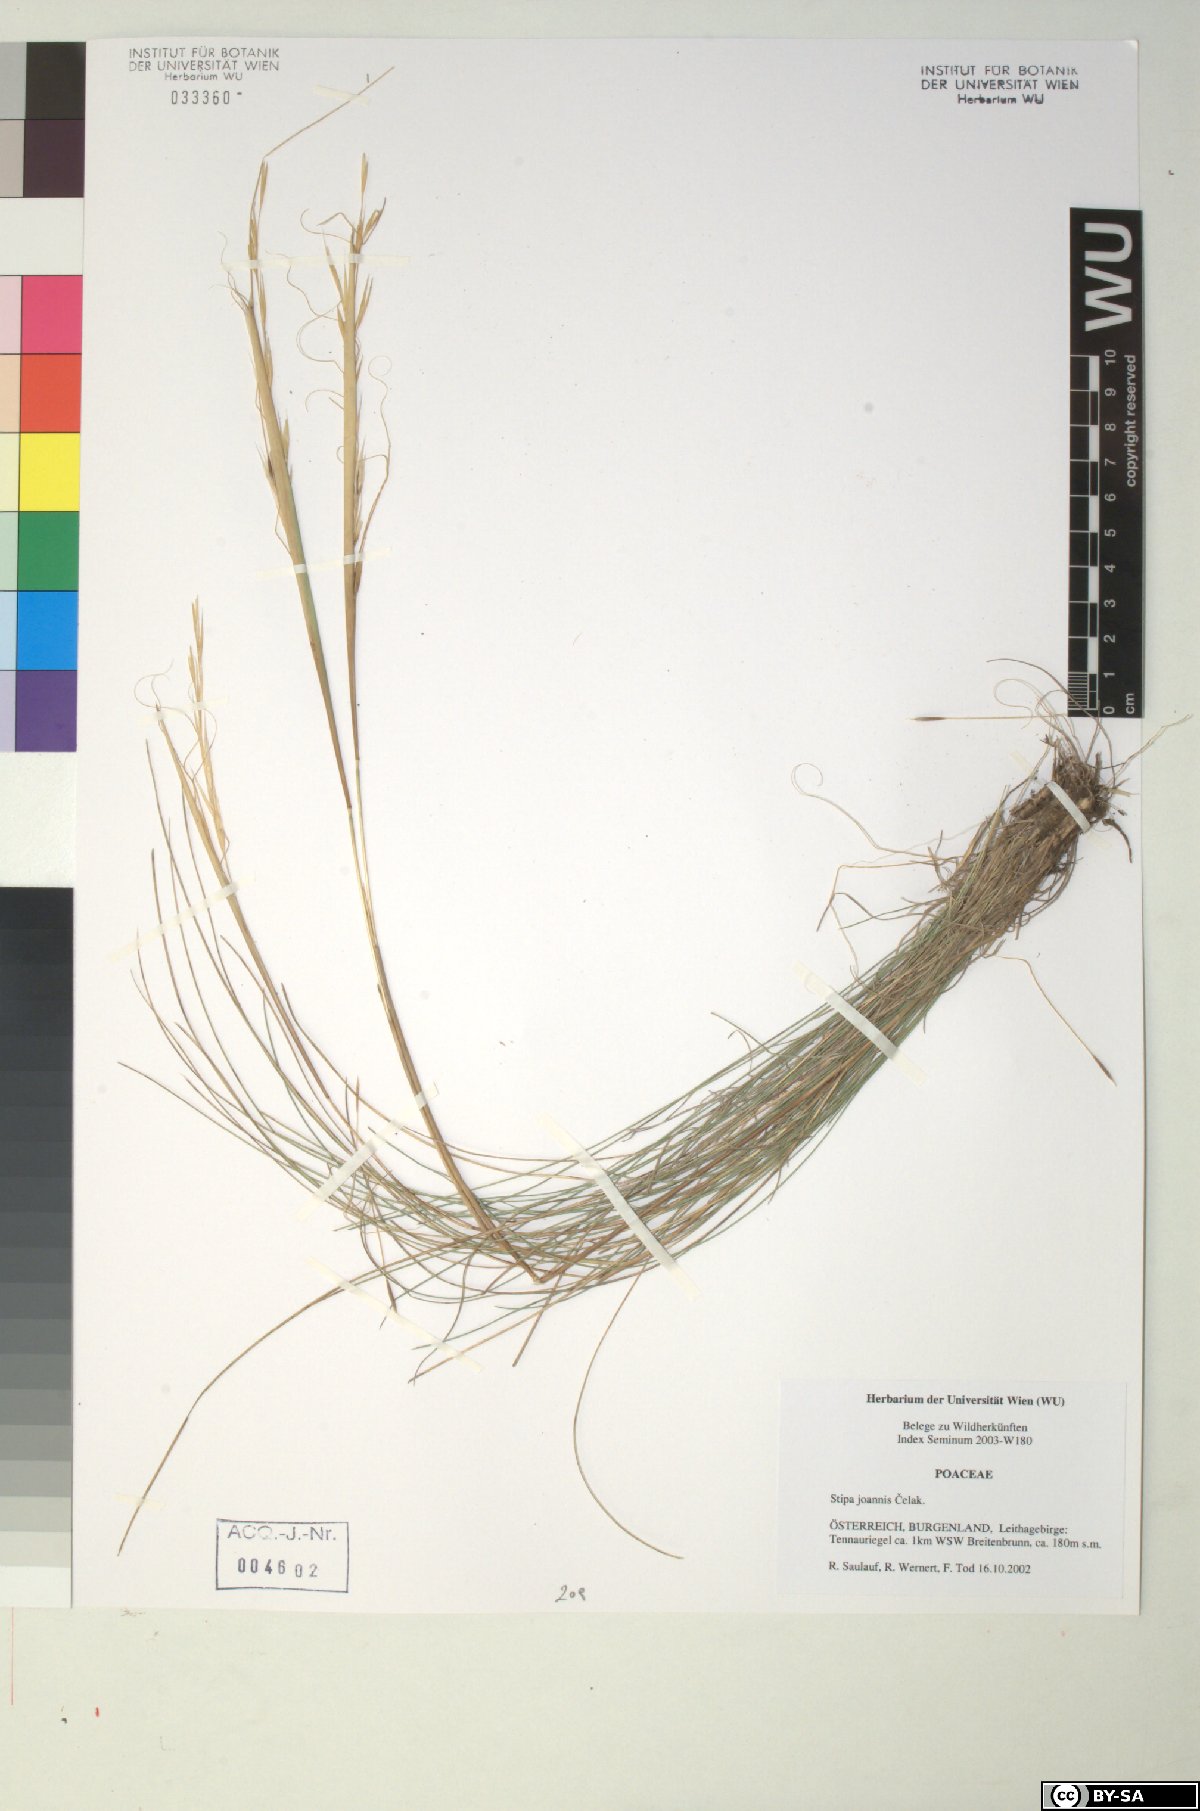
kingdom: Plantae
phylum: Tracheophyta
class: Liliopsida
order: Poales
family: Poaceae
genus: Stipa
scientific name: Stipa capillata
